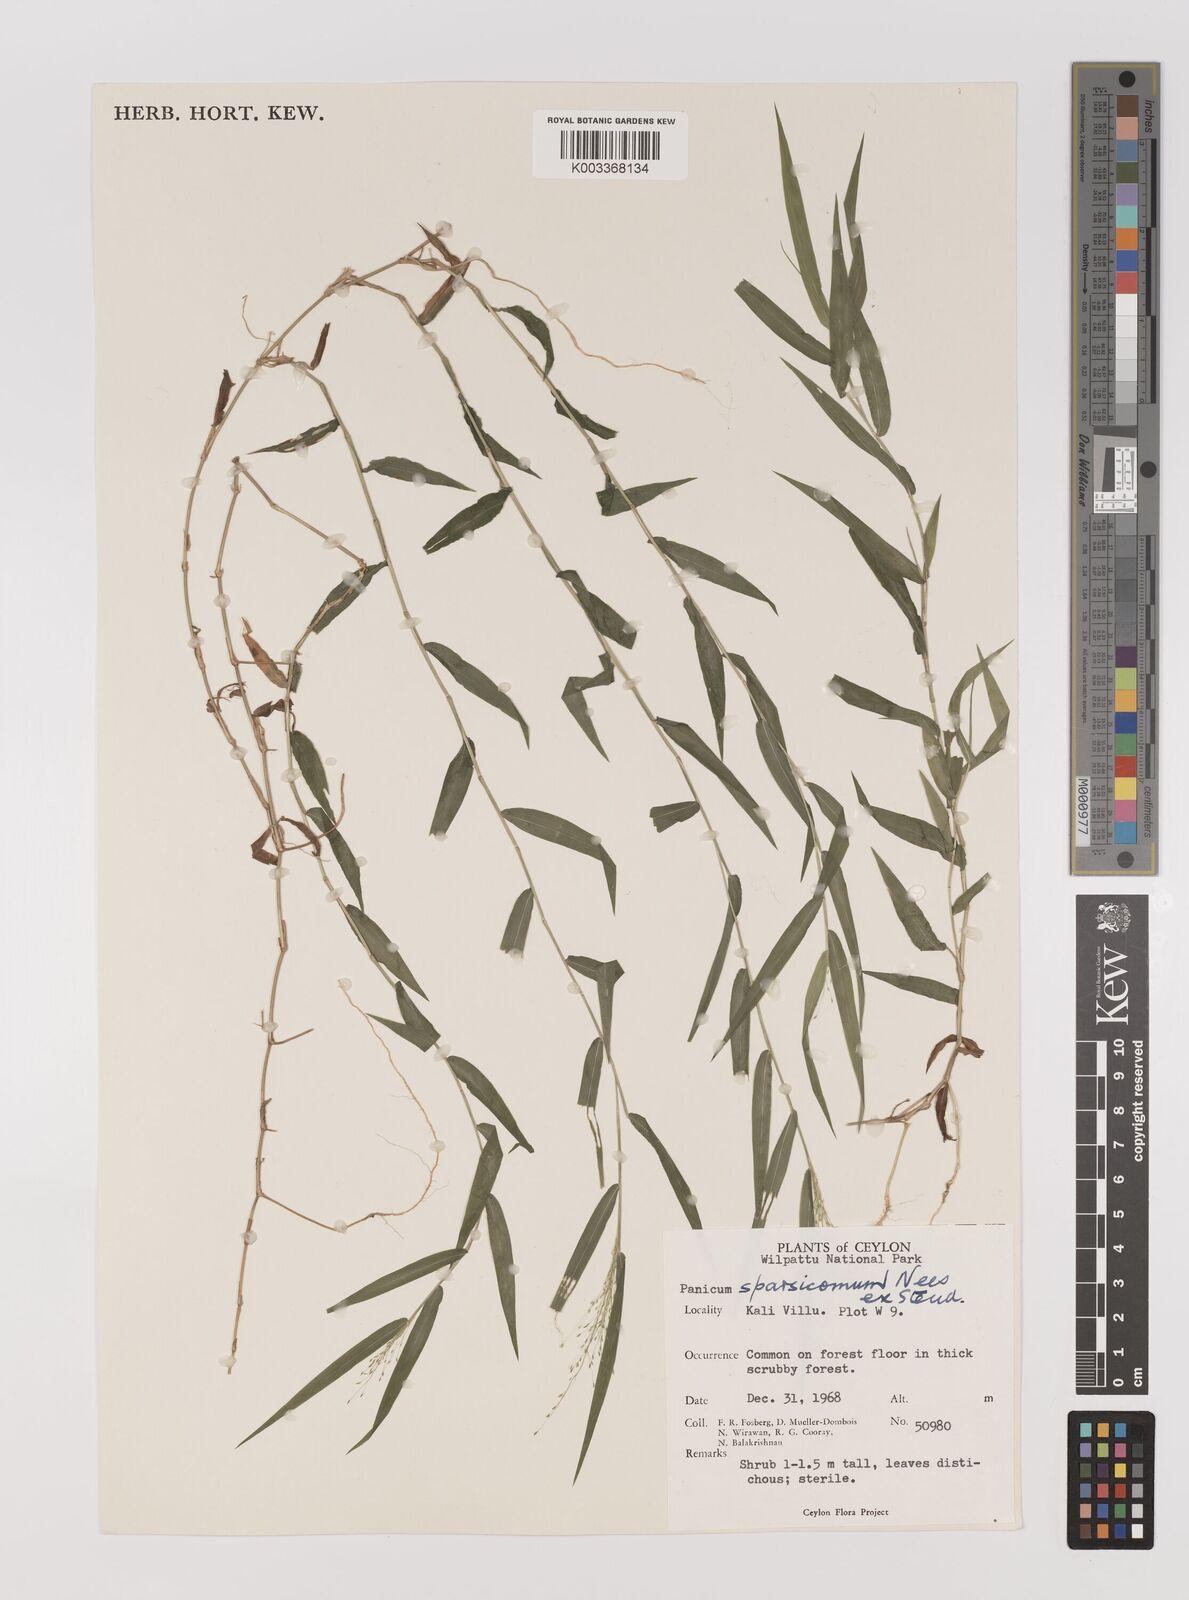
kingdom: Plantae
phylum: Tracheophyta
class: Liliopsida
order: Poales
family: Poaceae
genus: Panicum
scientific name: Panicum sparsicomum
